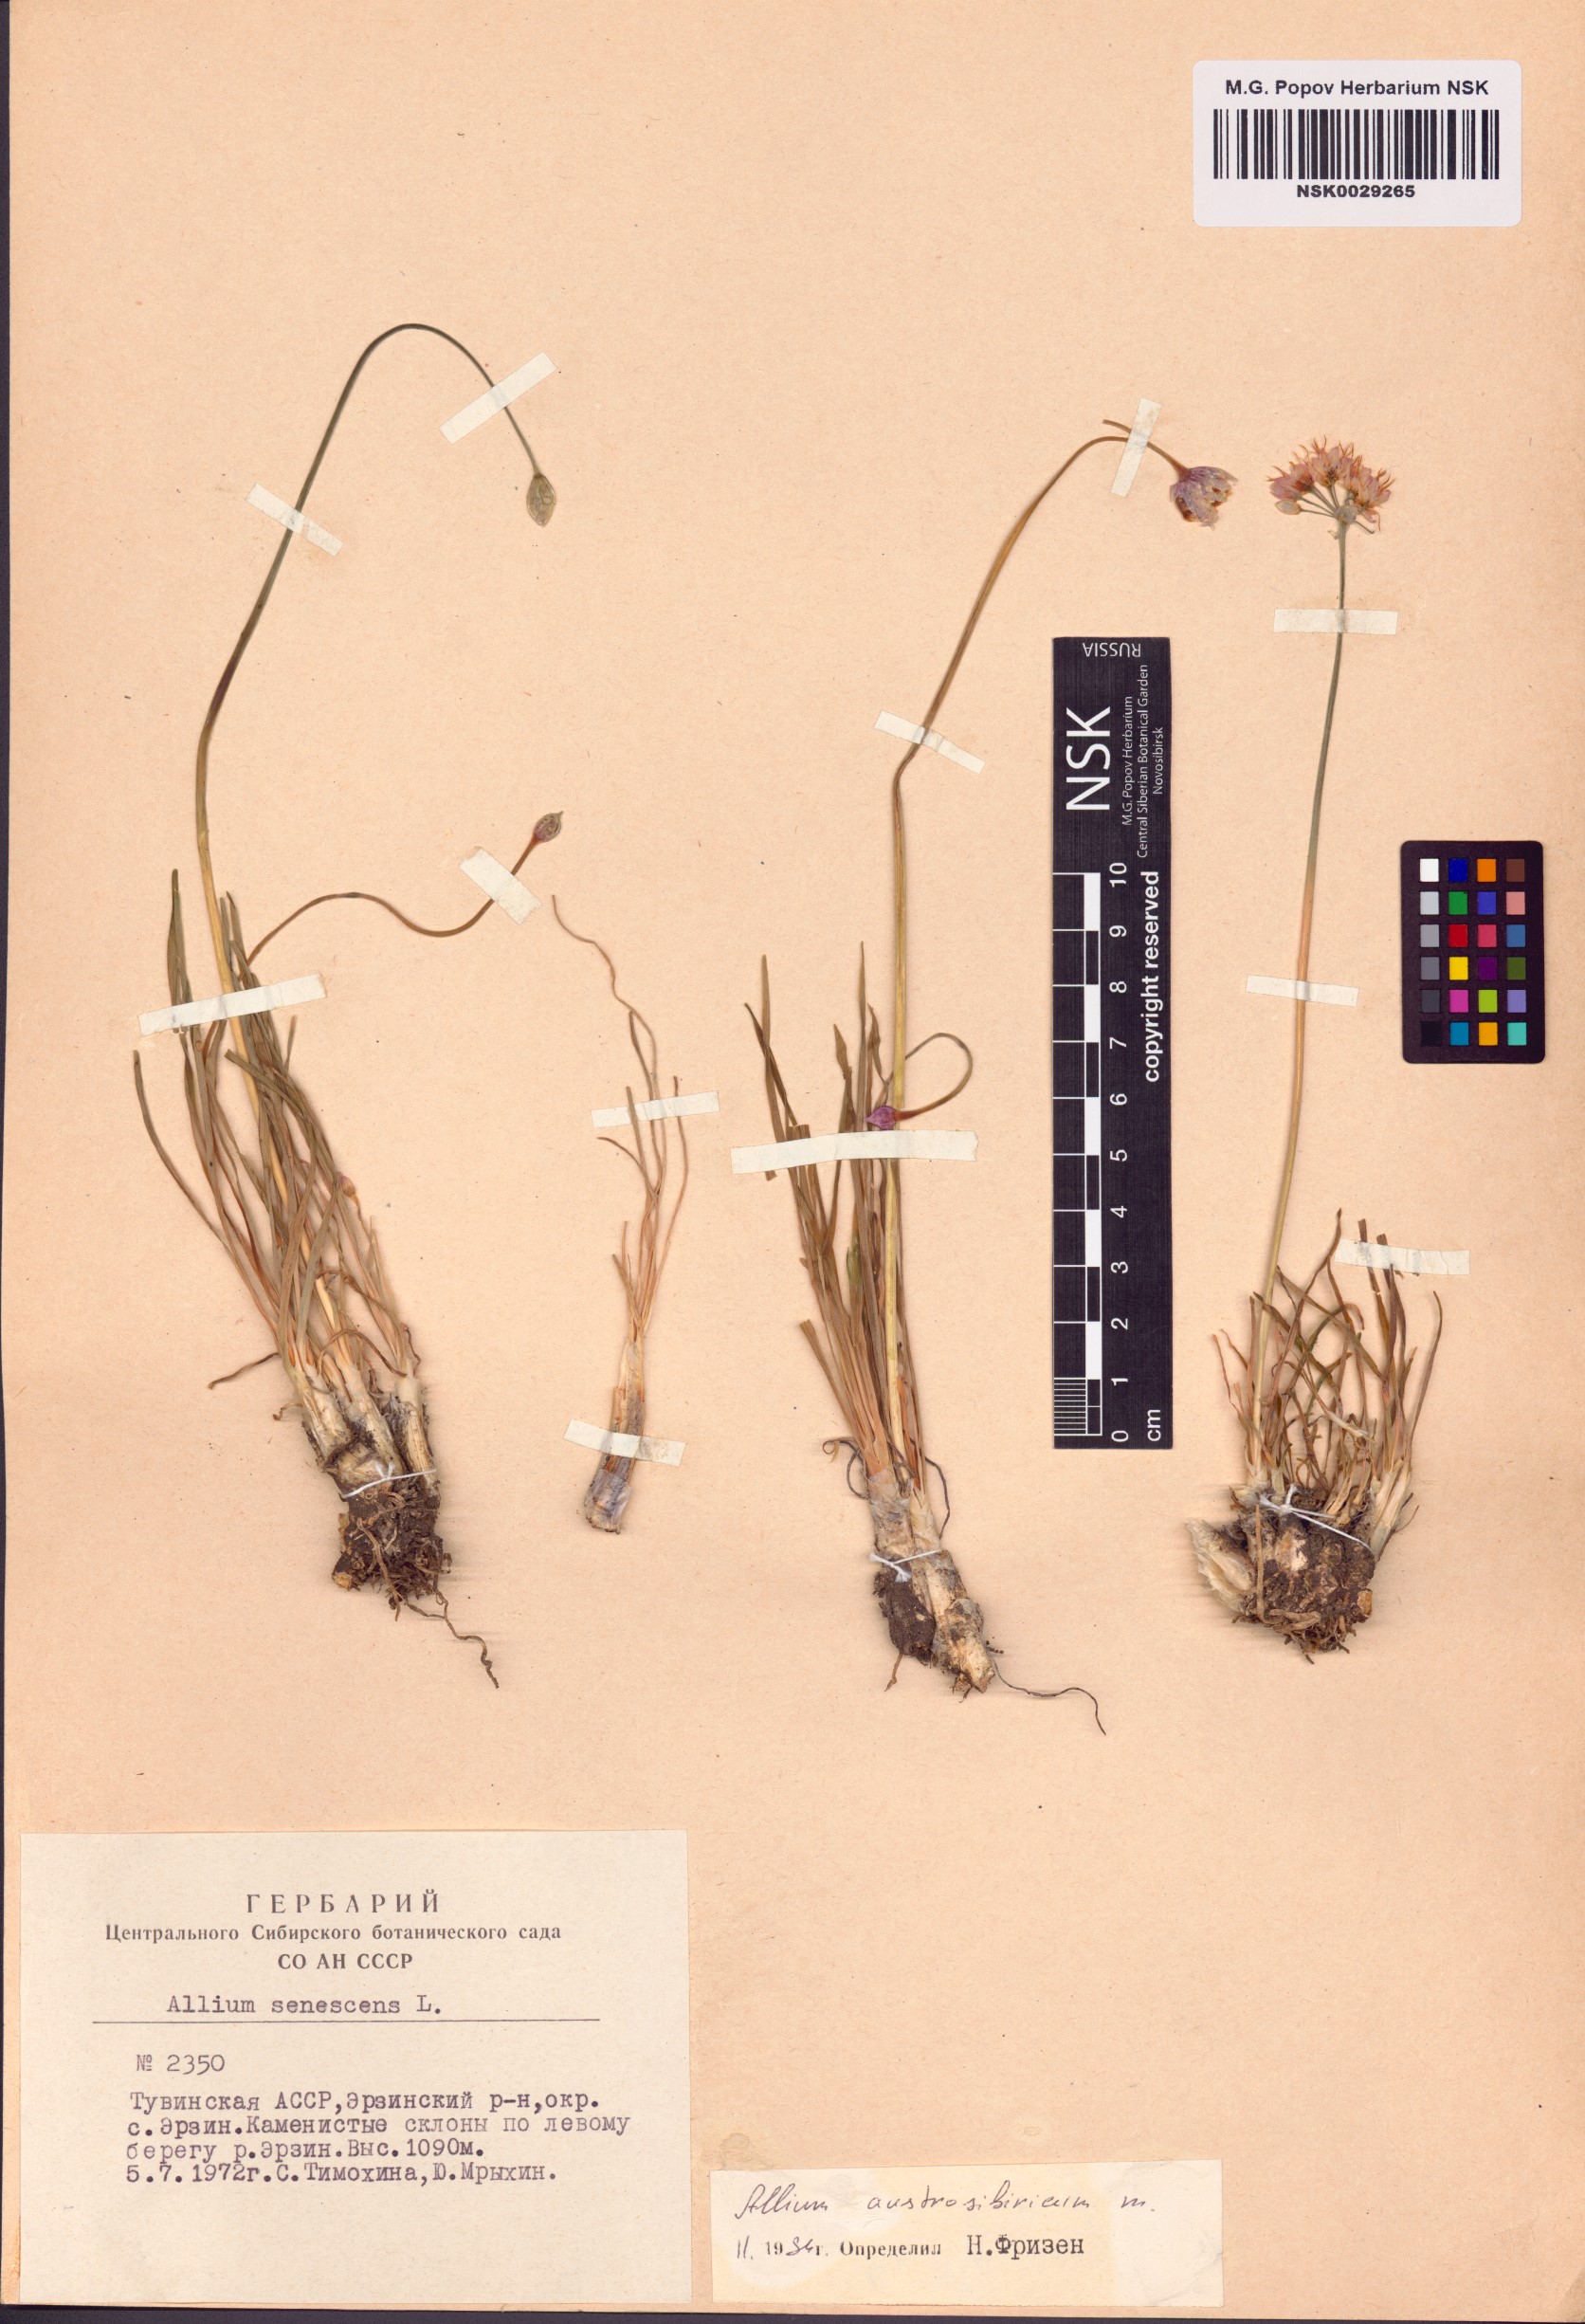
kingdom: Plantae
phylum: Tracheophyta
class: Liliopsida
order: Asparagales
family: Amaryllidaceae
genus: Allium
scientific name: Allium austrosibiricum
